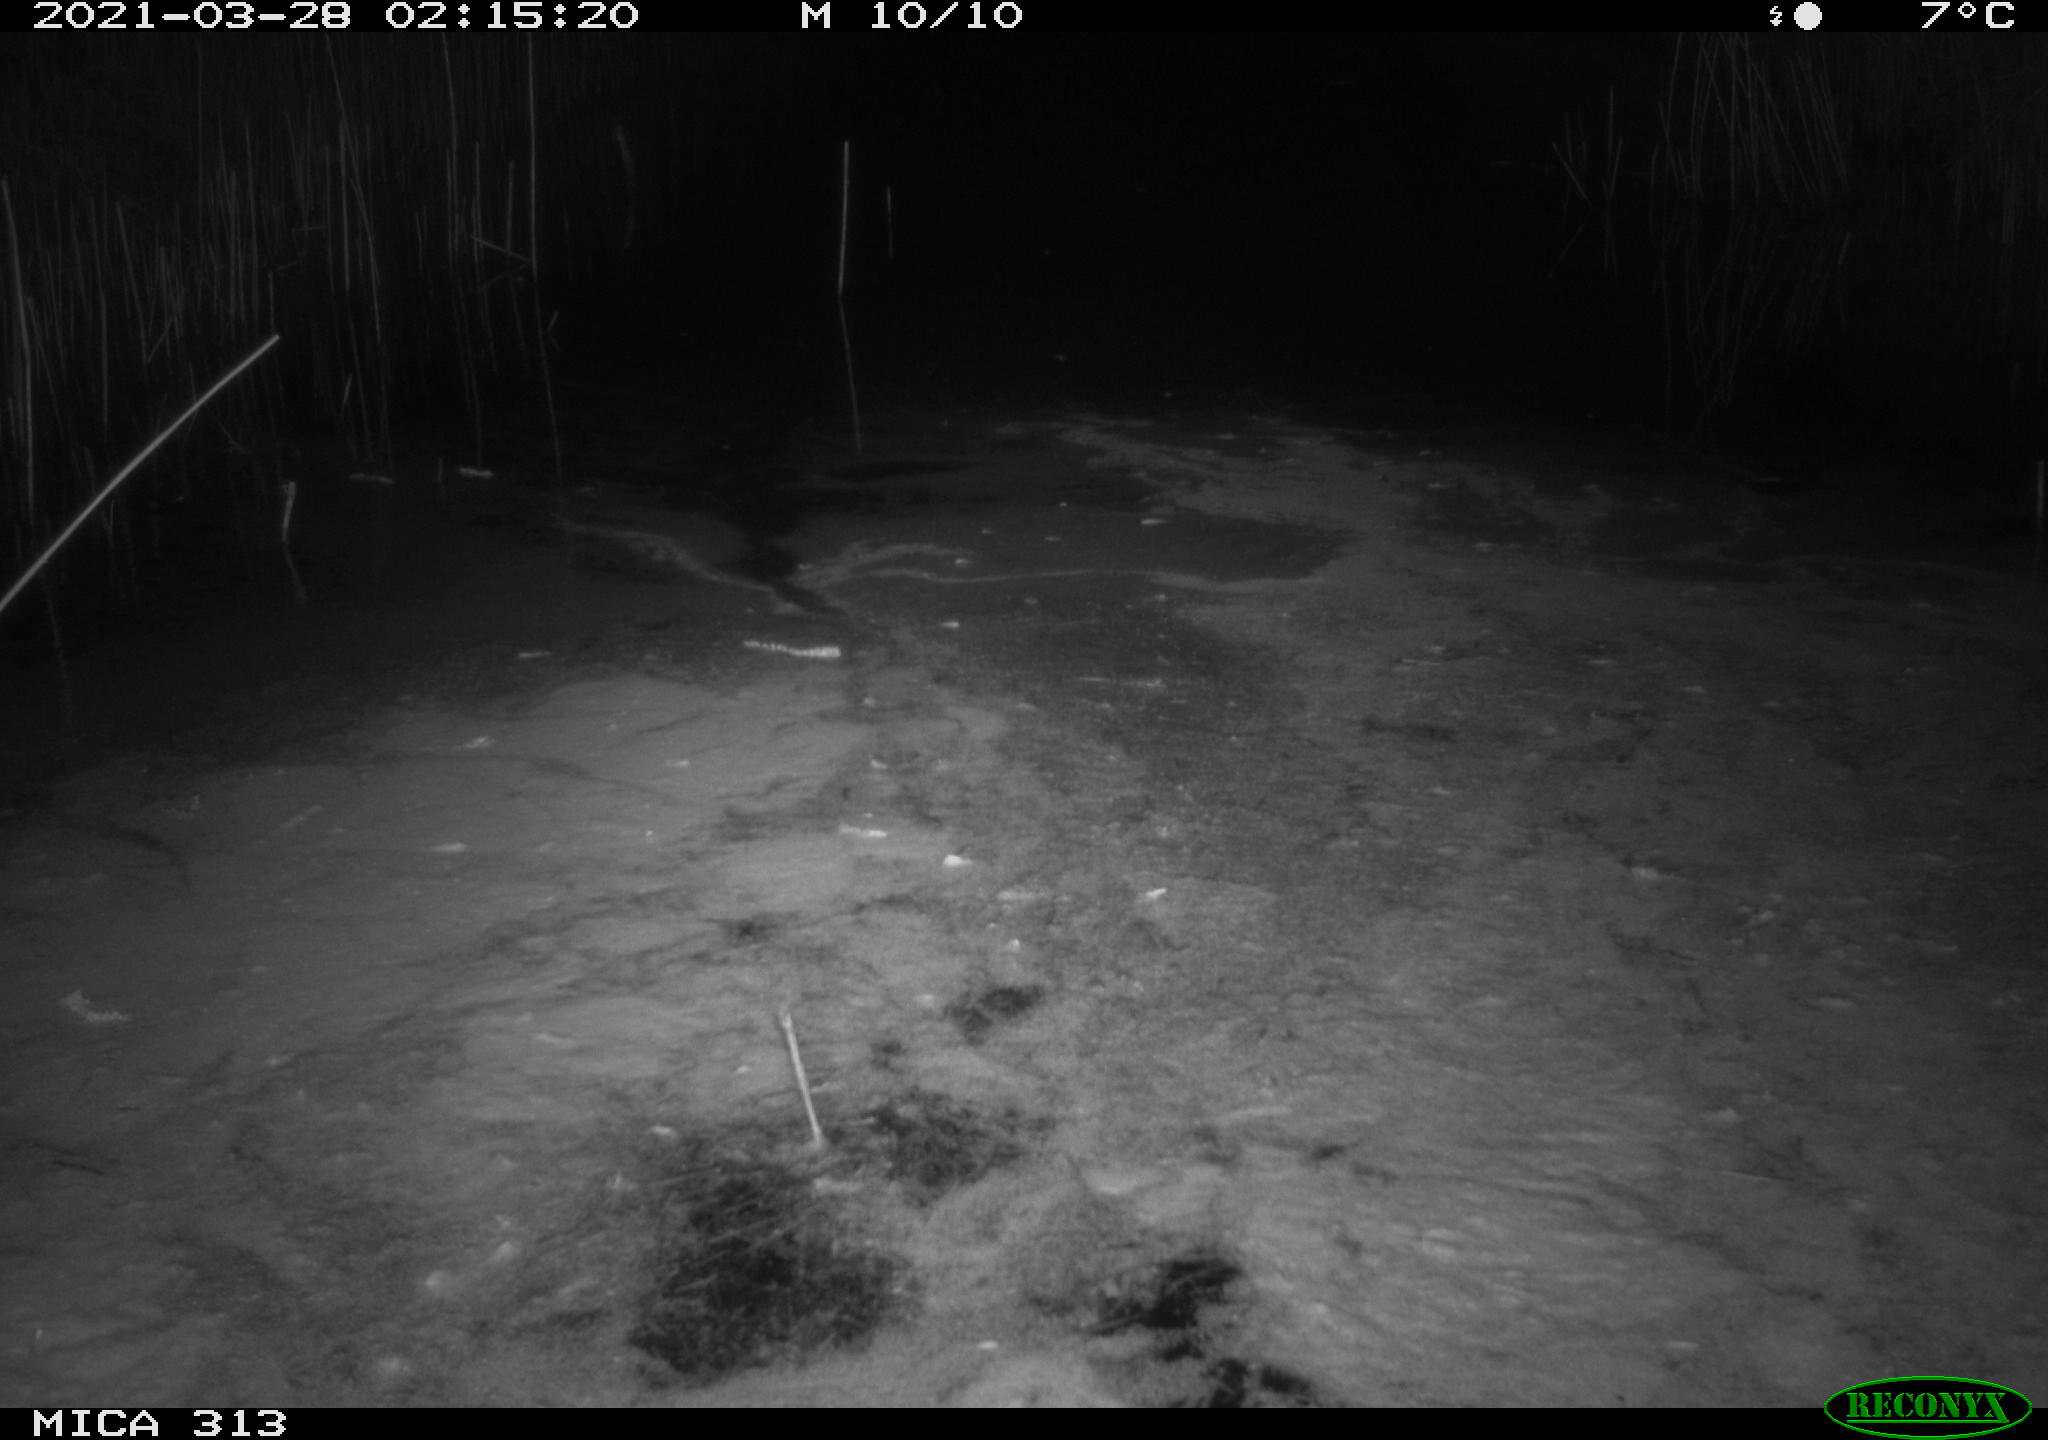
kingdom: Animalia
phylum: Chordata
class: Aves
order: Anseriformes
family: Anatidae
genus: Anas
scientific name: Anas platyrhynchos
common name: Mallard
